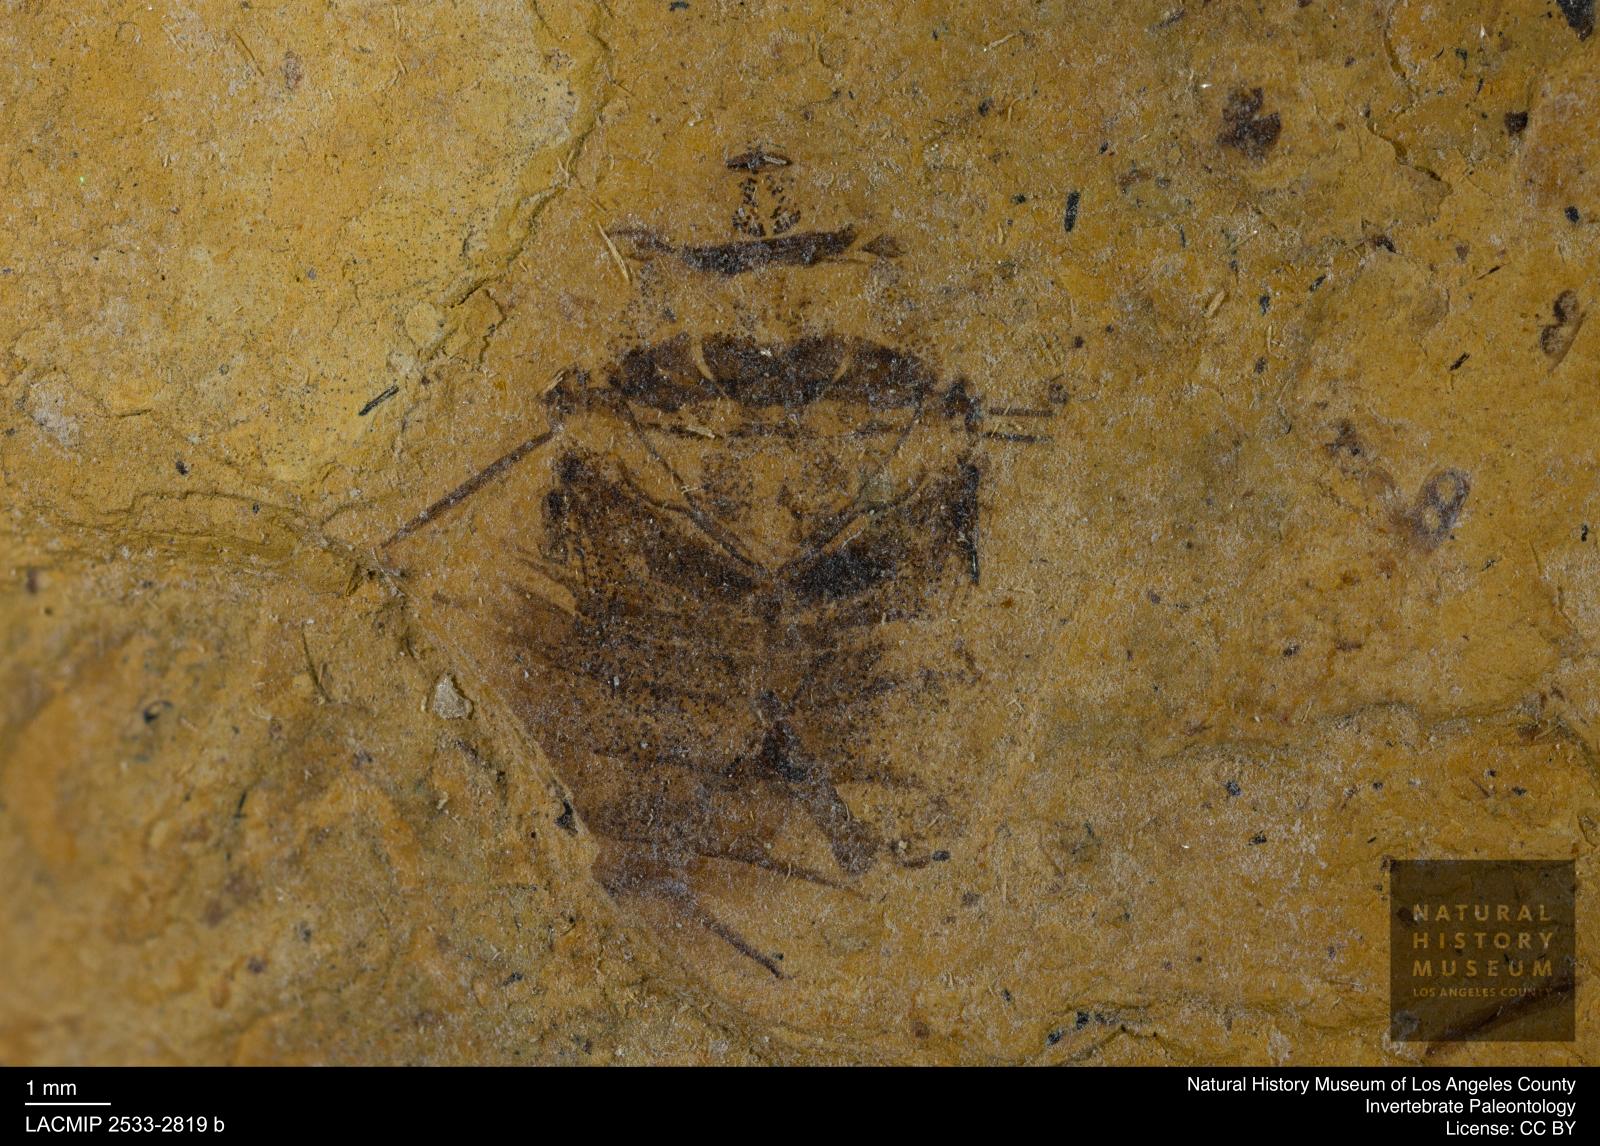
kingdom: Animalia
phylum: Arthropoda
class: Insecta
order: Hemiptera
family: Naucoridae
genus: Naucoris
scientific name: Naucoris rottensis
